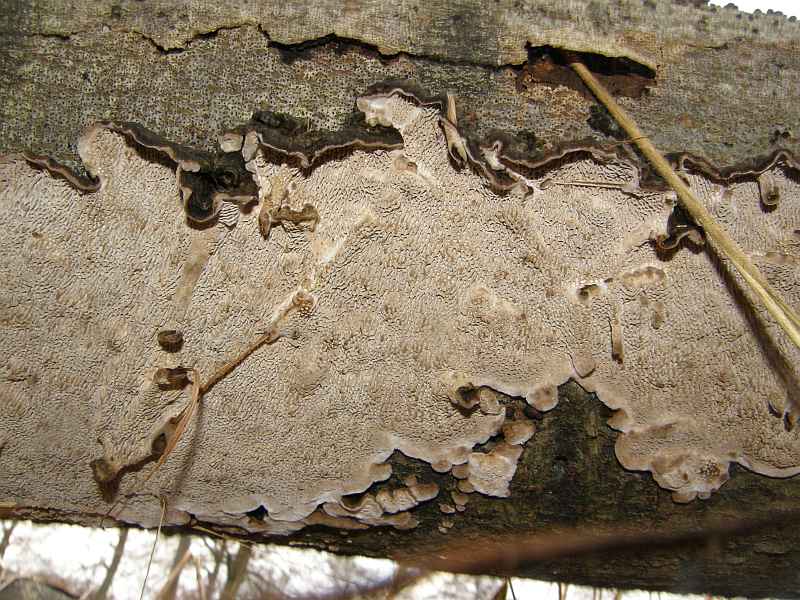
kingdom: Fungi
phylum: Basidiomycota
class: Agaricomycetes
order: Polyporales
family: Polyporaceae
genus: Podofomes
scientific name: Podofomes mollis
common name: blød begporesvamp
